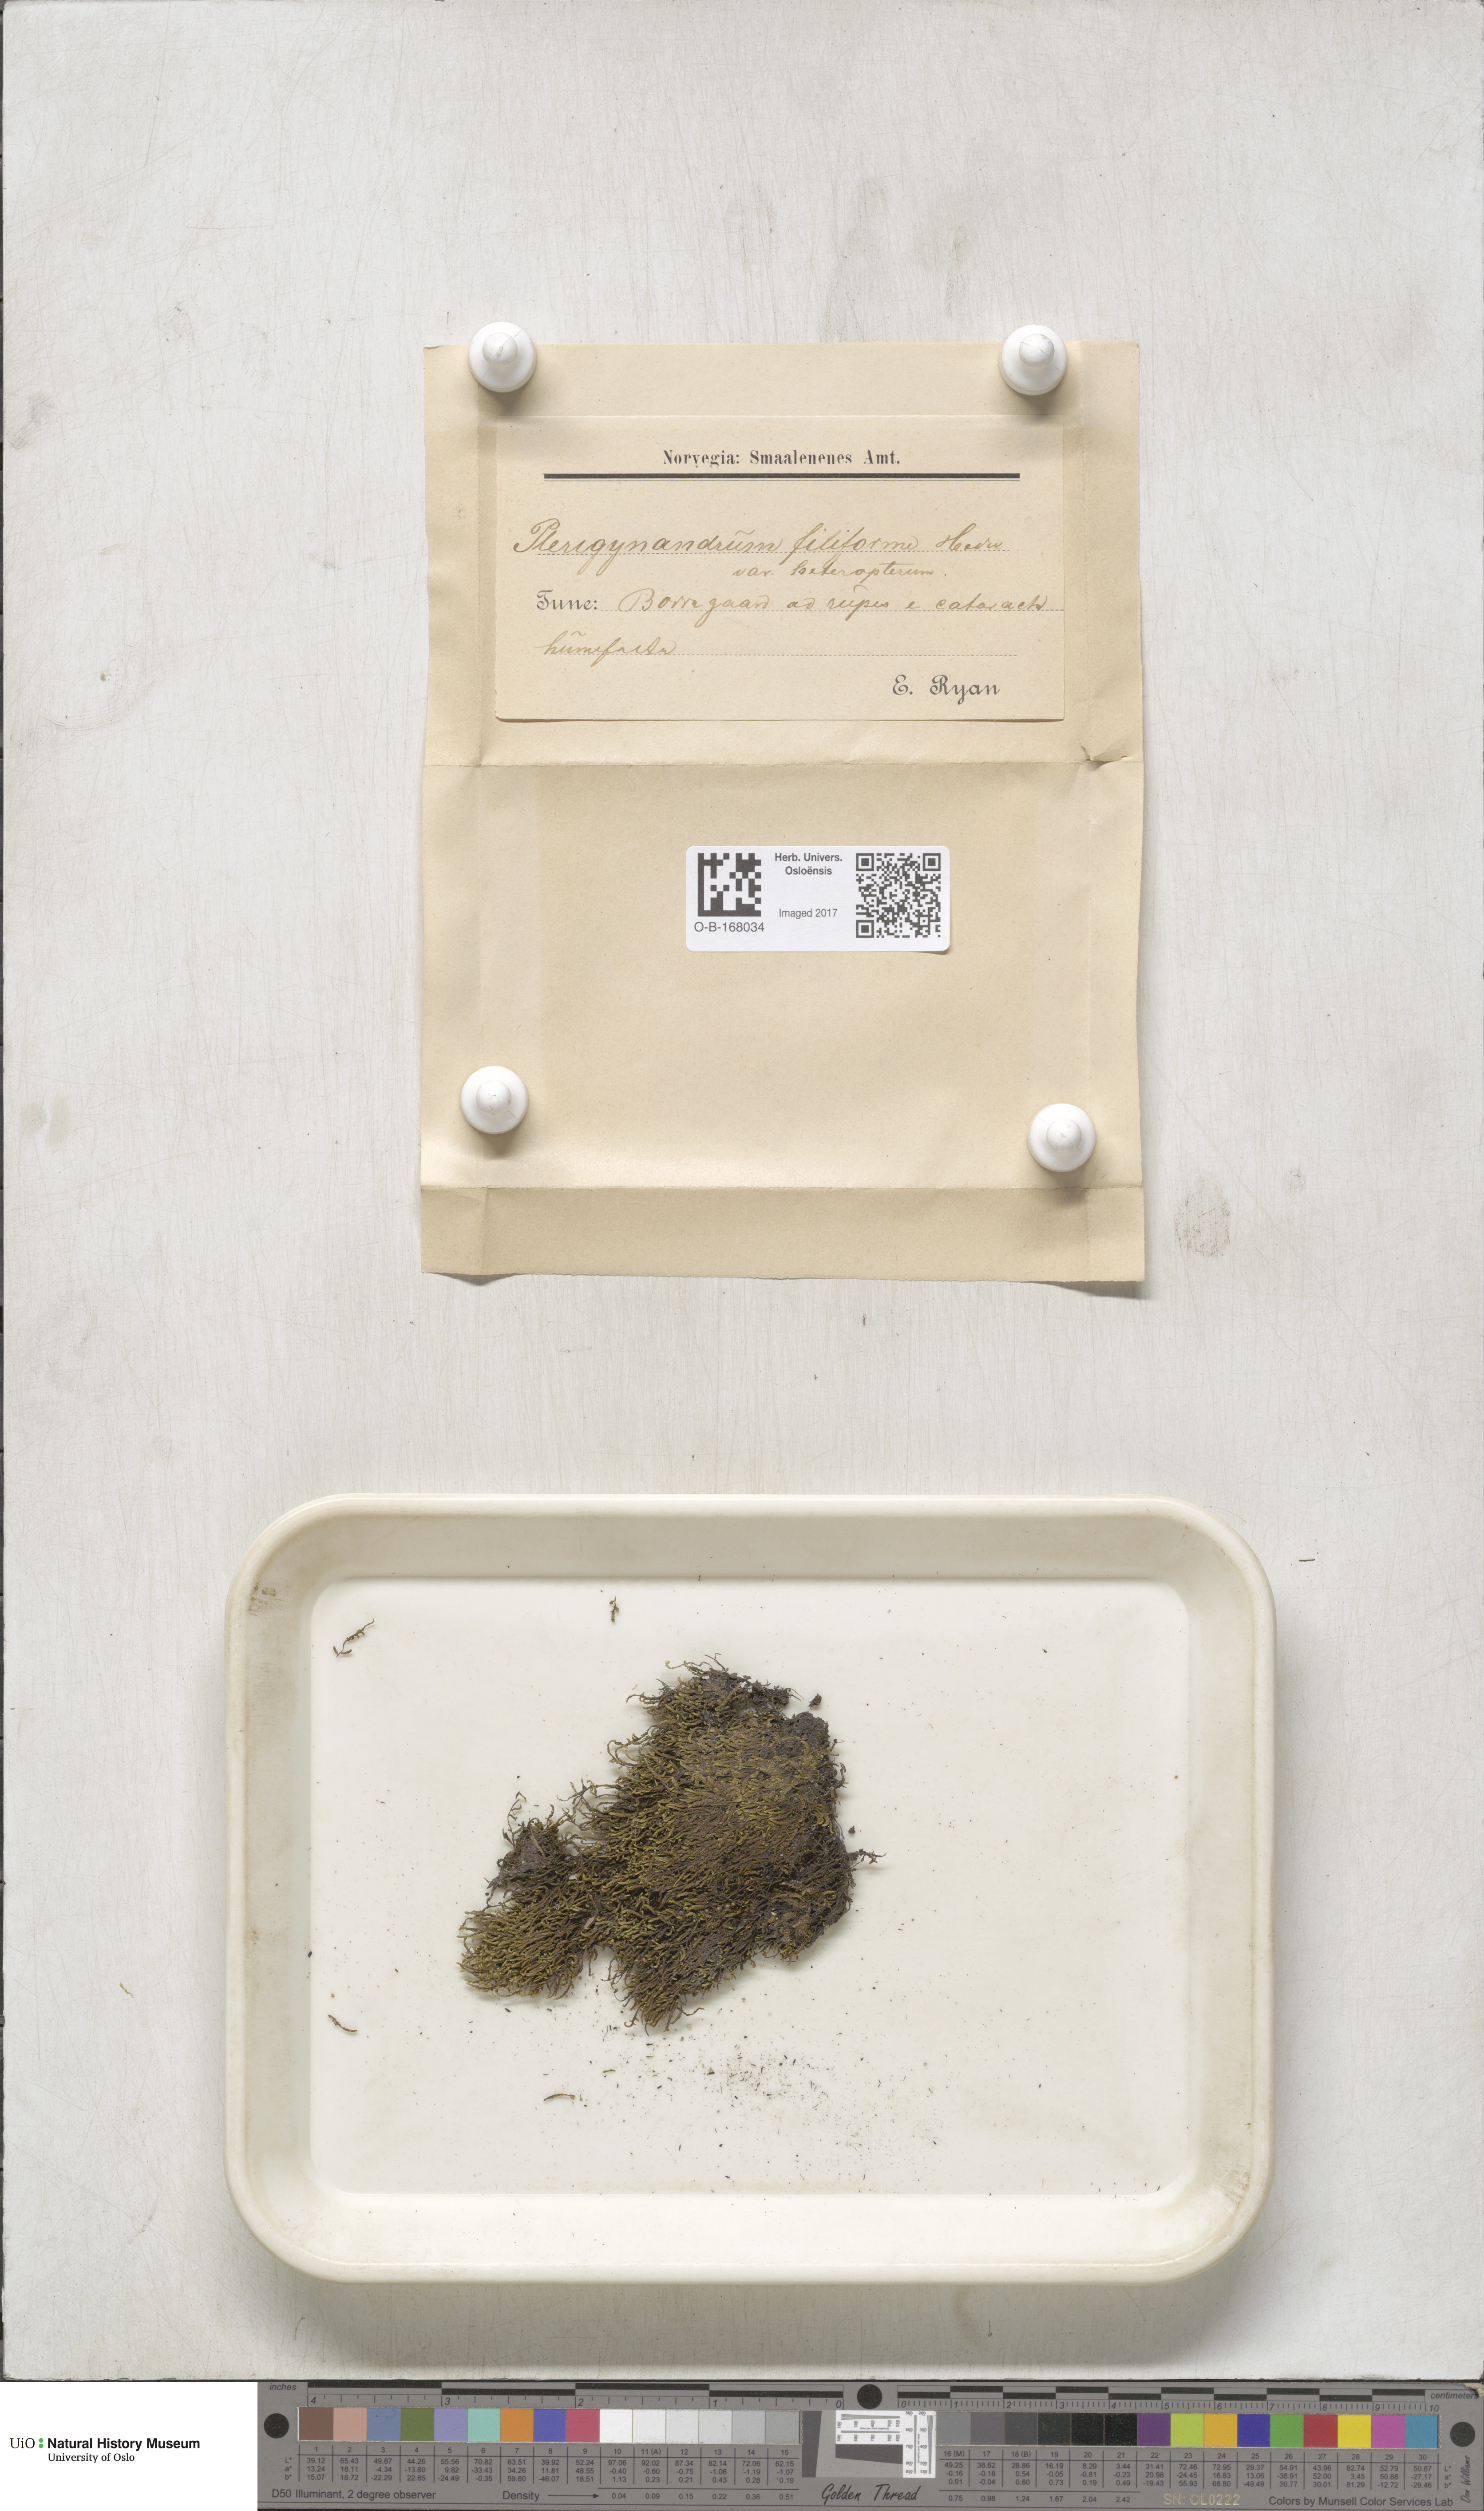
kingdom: Plantae
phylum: Bryophyta
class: Bryopsida
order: Hypnales
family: Pterigynandraceae
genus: Pterigynandrum
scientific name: Pterigynandrum filiforme
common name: Capillary wing moss
